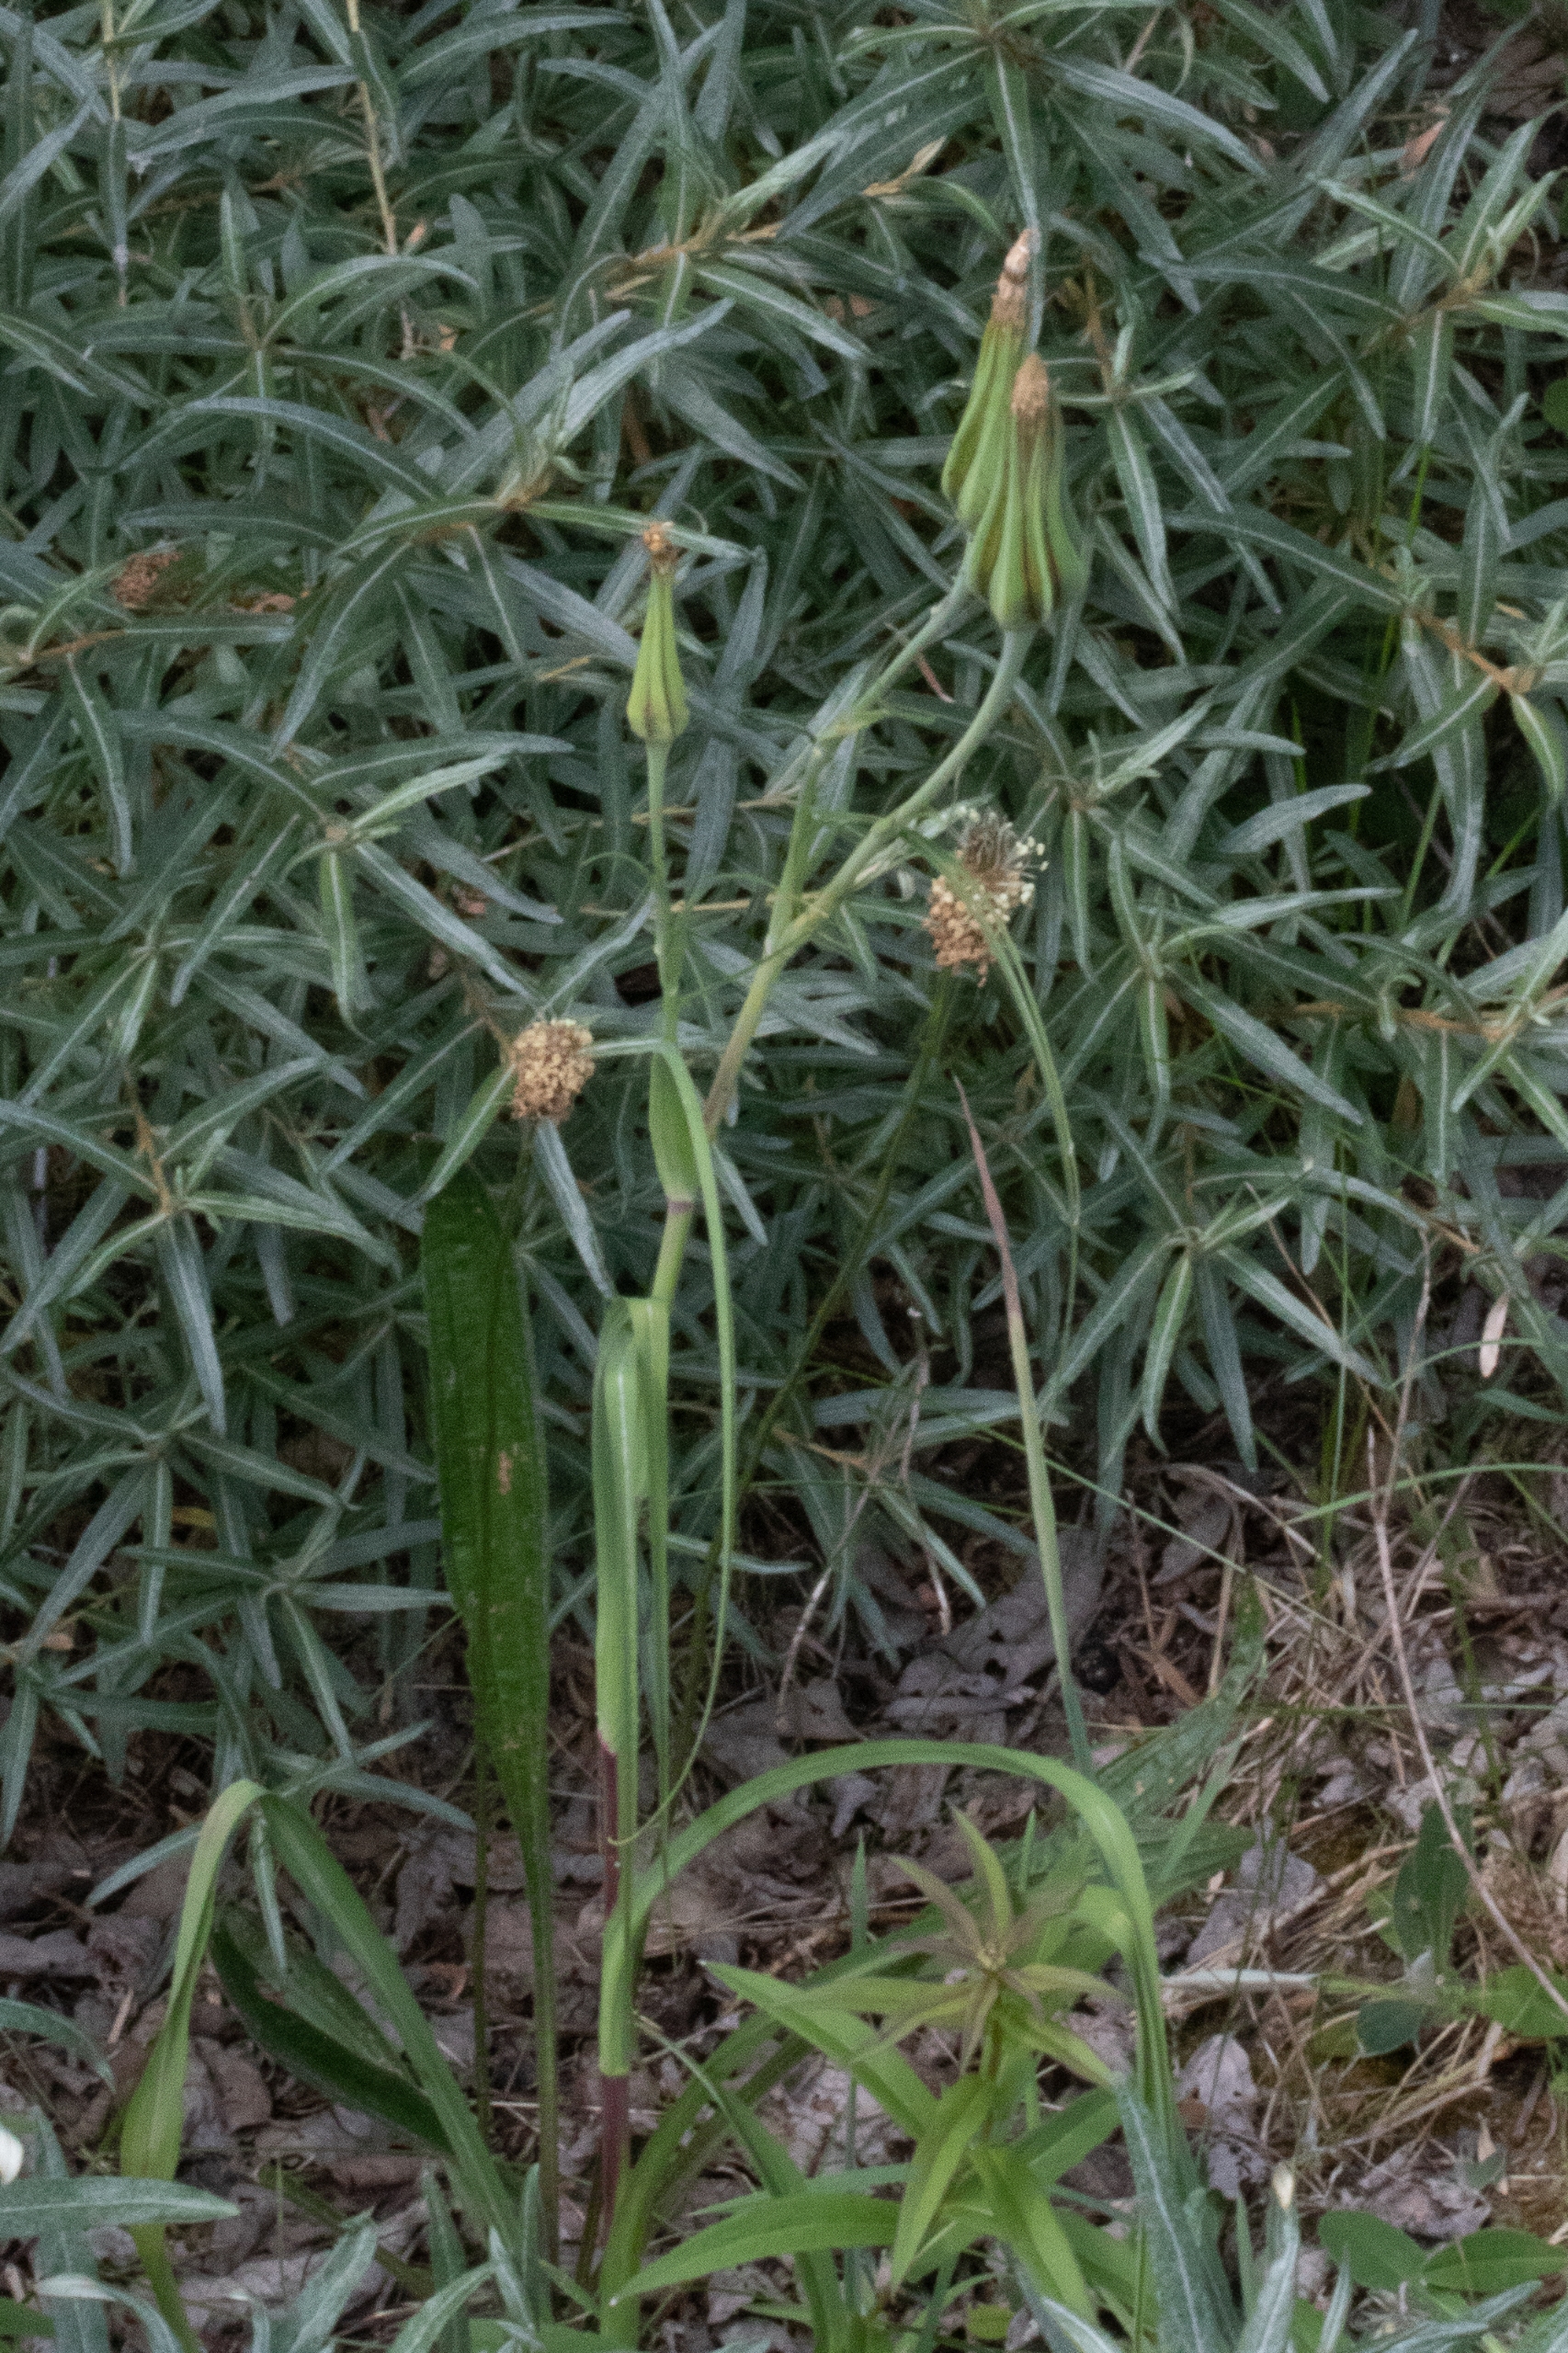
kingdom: Plantae
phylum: Tracheophyta
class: Magnoliopsida
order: Asterales
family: Asteraceae
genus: Tragopogon
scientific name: Tragopogon minor
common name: Småkronet gedeskæg
